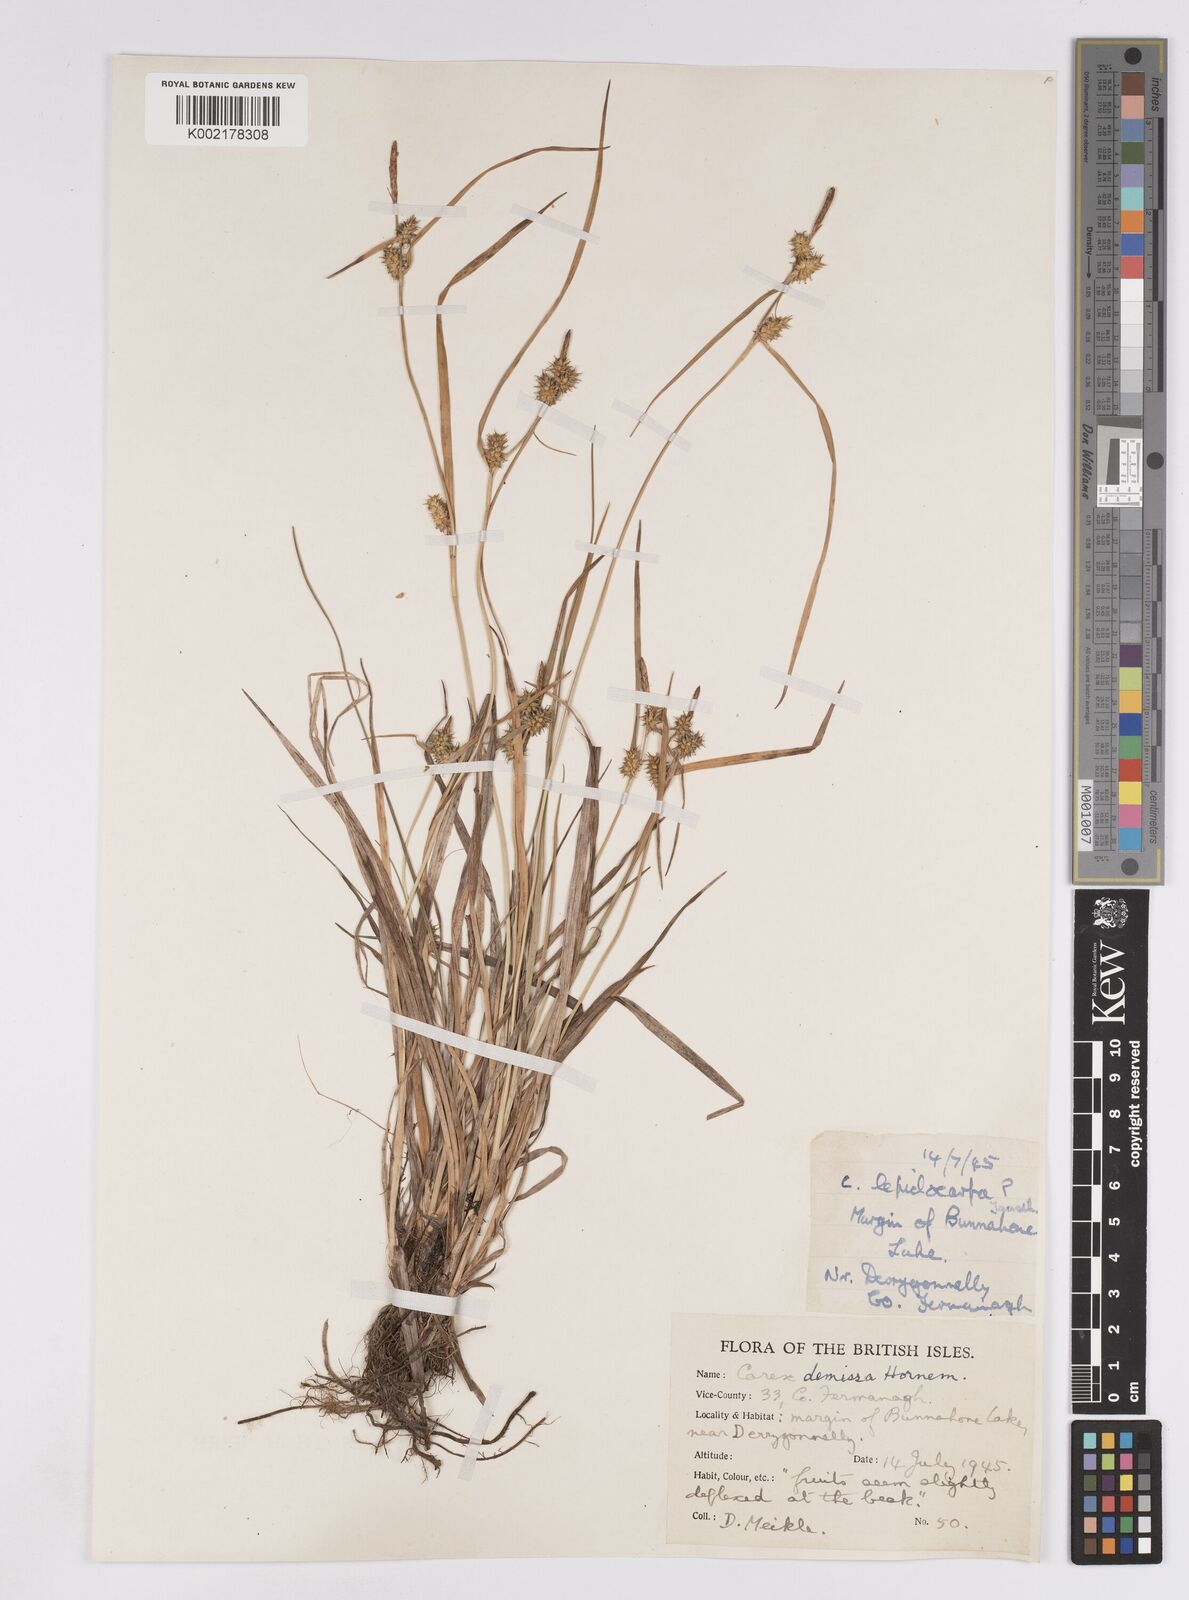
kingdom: Plantae
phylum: Tracheophyta
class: Liliopsida
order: Poales
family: Cyperaceae
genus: Carex
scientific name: Carex demissa
